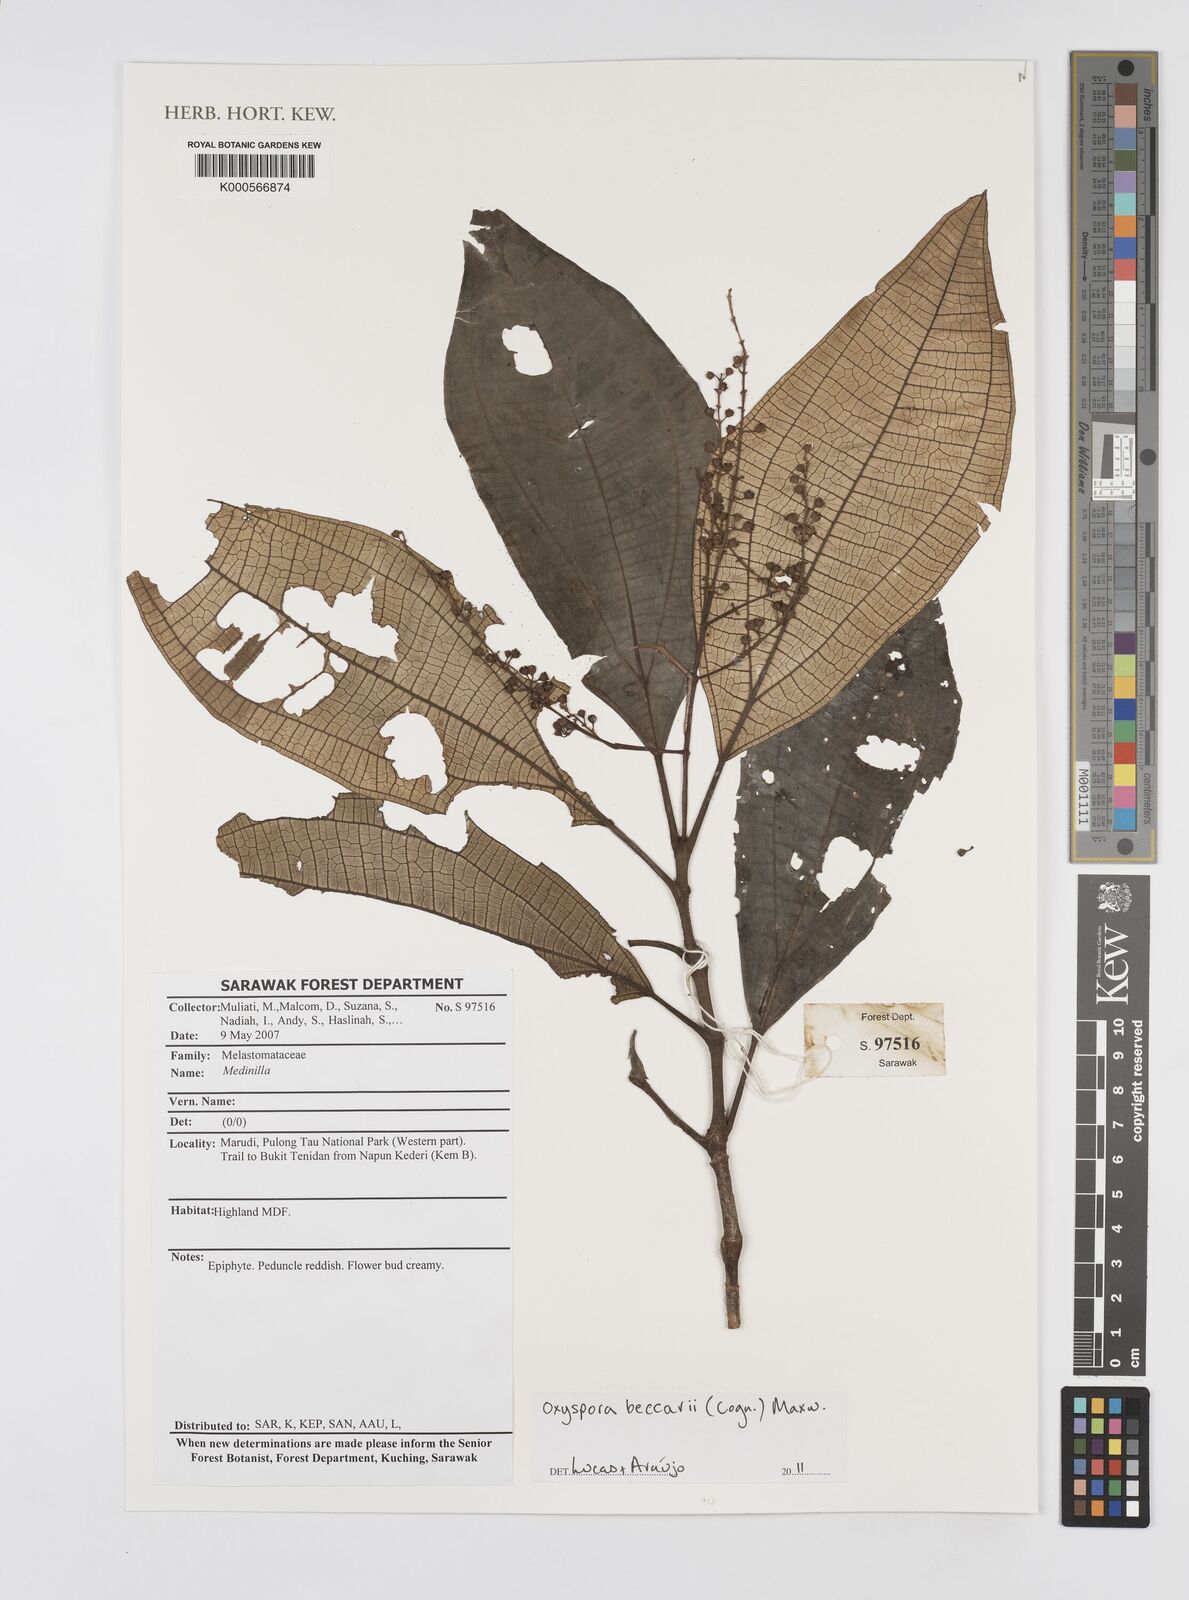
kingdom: Plantae
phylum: Tracheophyta
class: Magnoliopsida
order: Myrtales
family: Melastomataceae
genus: Oxyspora
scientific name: Oxyspora beccarii
